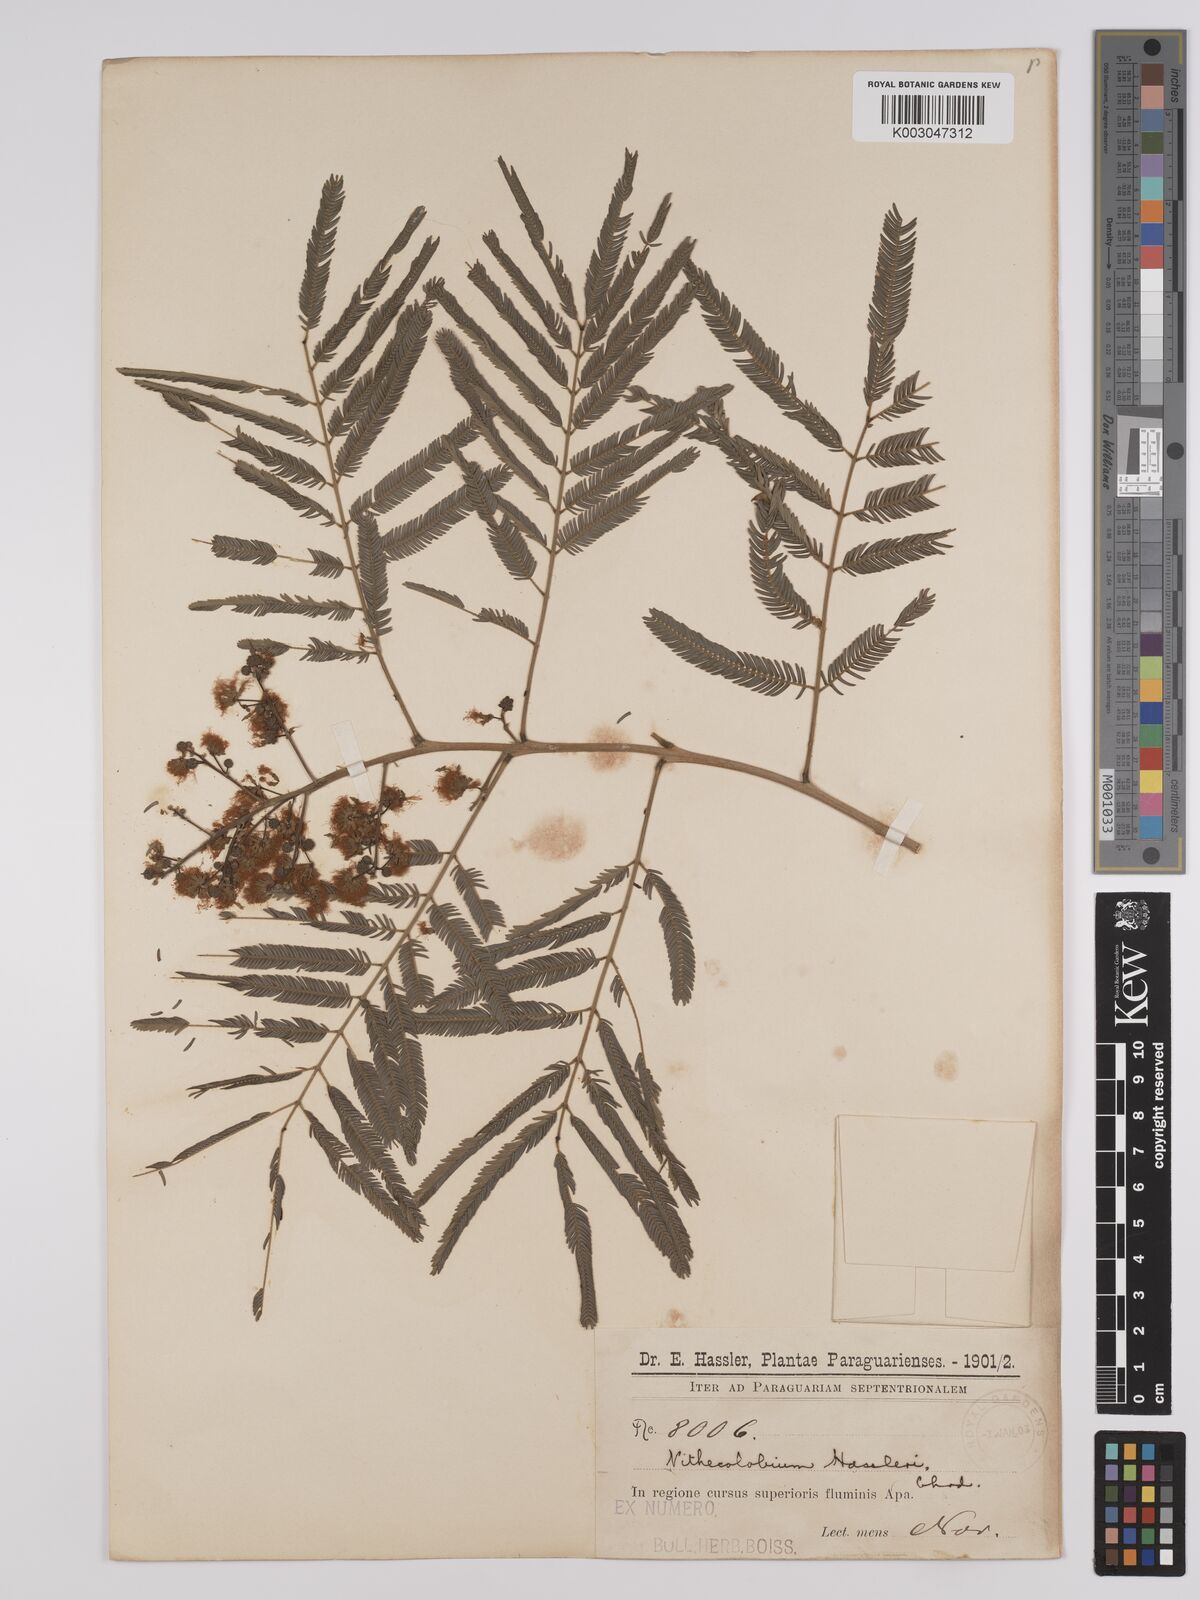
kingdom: Plantae
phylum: Tracheophyta
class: Magnoliopsida
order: Fabales
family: Fabaceae
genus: Albizia
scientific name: Albizia niopoides
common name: Silk tree
